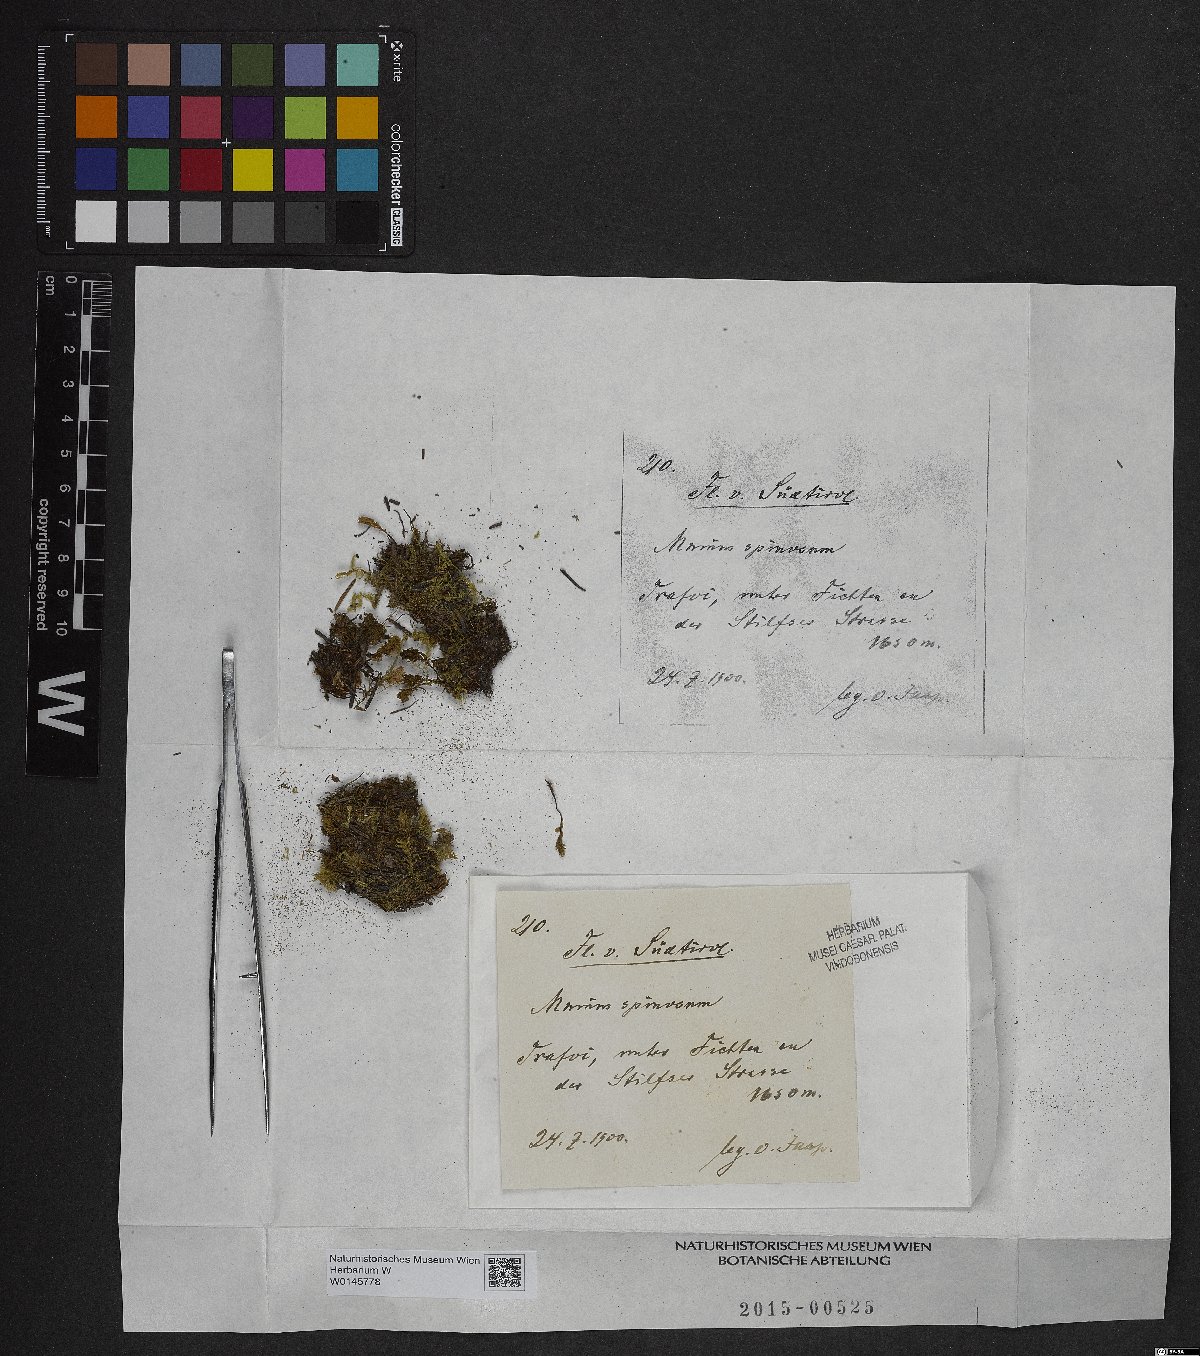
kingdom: Plantae
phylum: Bryophyta
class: Bryopsida
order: Bryales
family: Mniaceae
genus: Mnium
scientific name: Mnium spinosum
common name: Spinose thyme-moss
